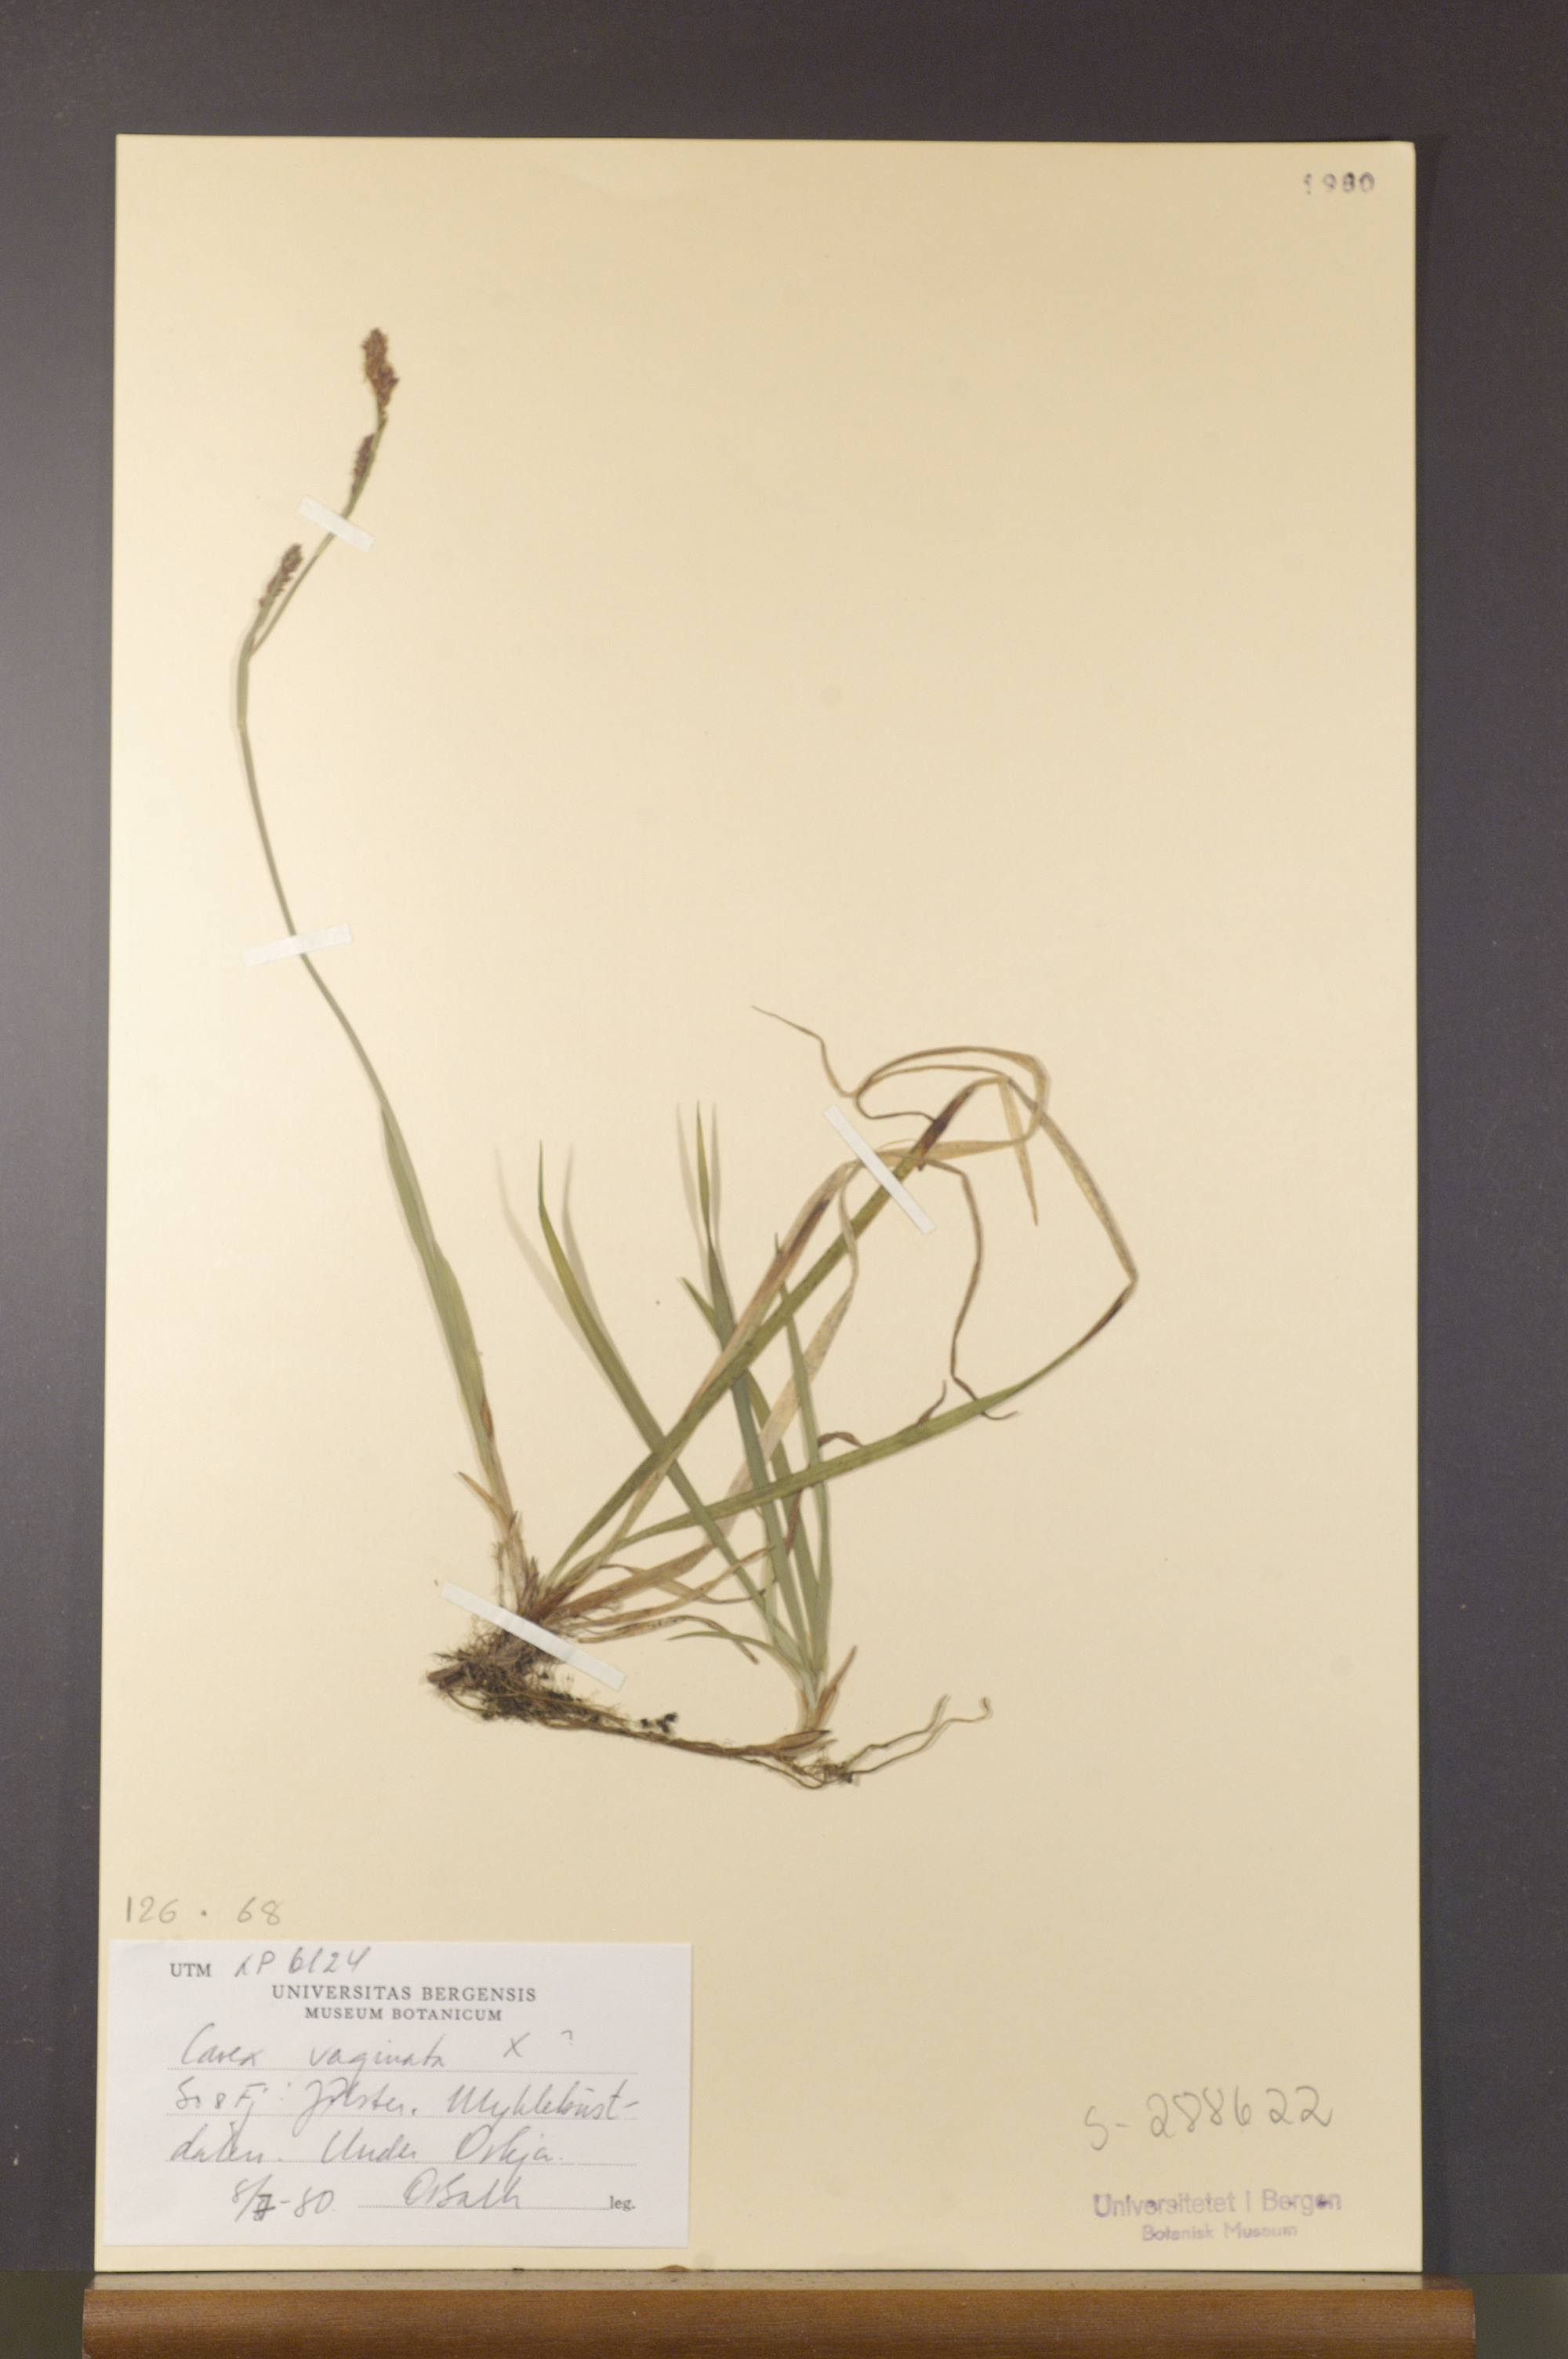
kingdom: Plantae
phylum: Tracheophyta
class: Liliopsida
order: Poales
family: Cyperaceae
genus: Carex
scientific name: Carex vaginata
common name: Sheathed sedge
